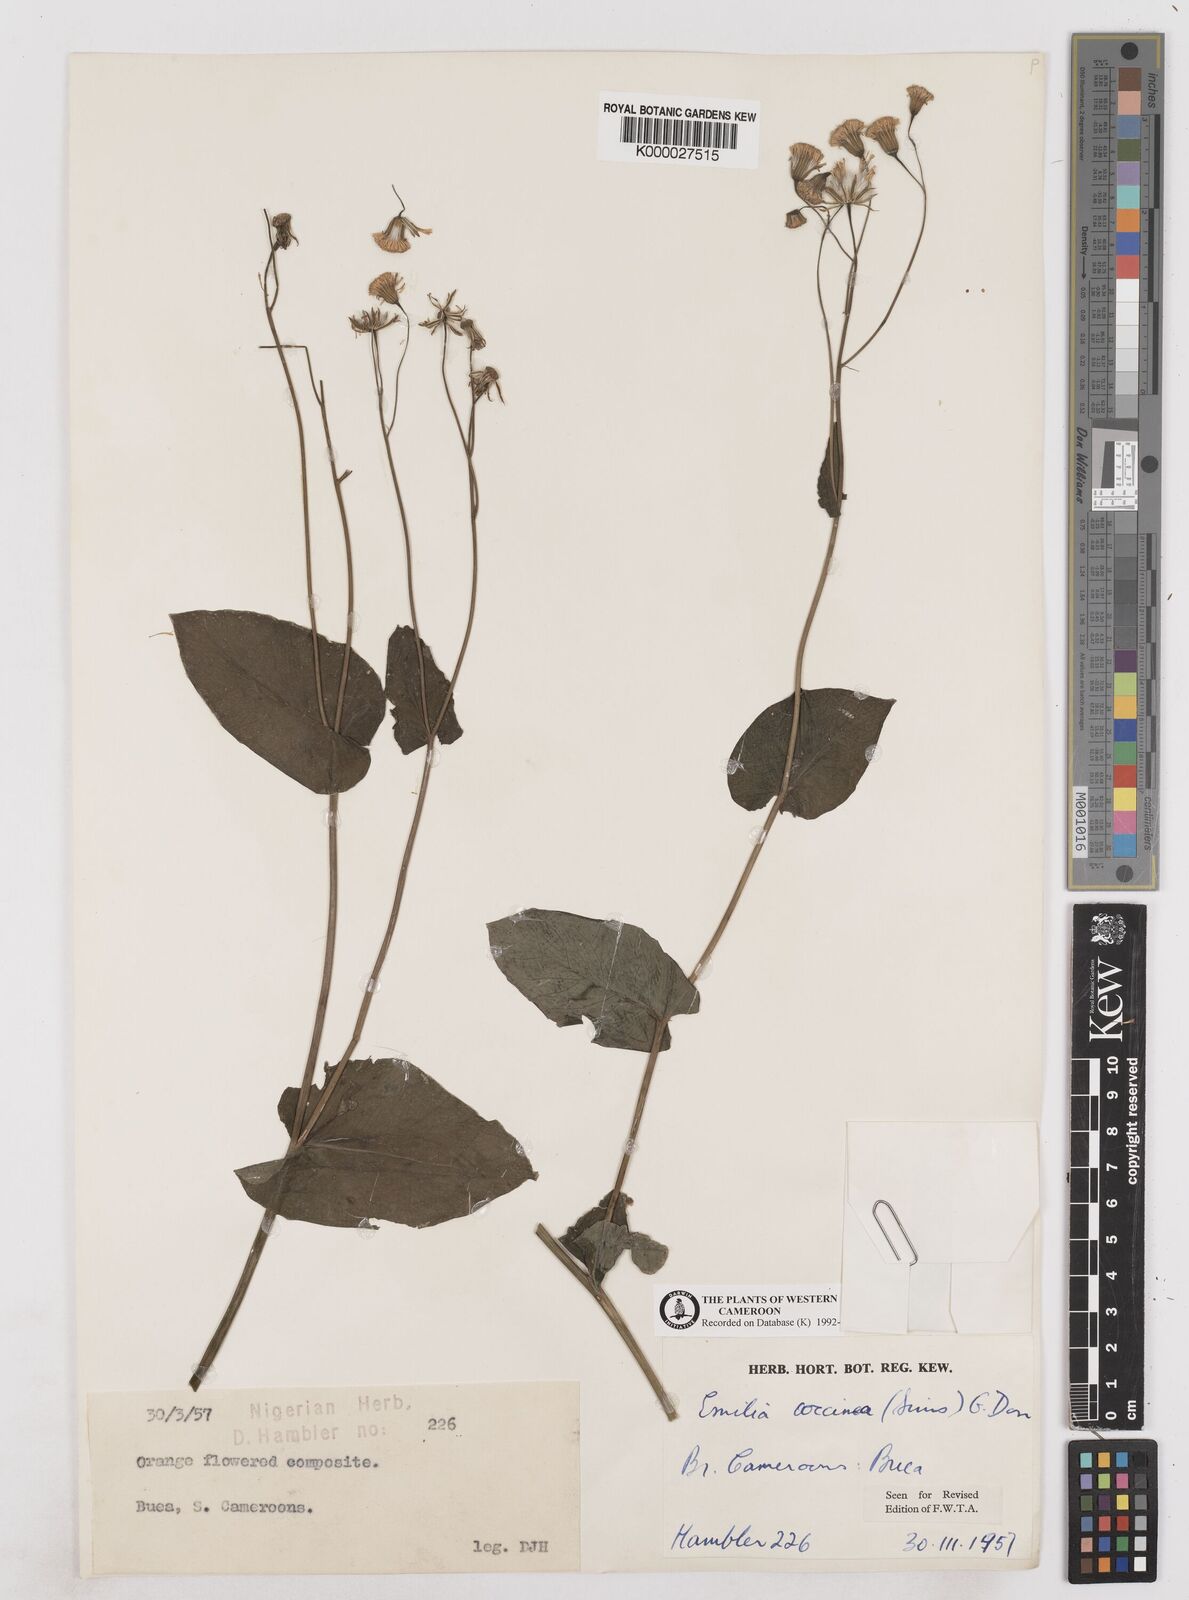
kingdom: Plantae
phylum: Tracheophyta
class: Magnoliopsida
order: Asterales
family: Asteraceae
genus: Emilia
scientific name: Emilia lisowskiana
